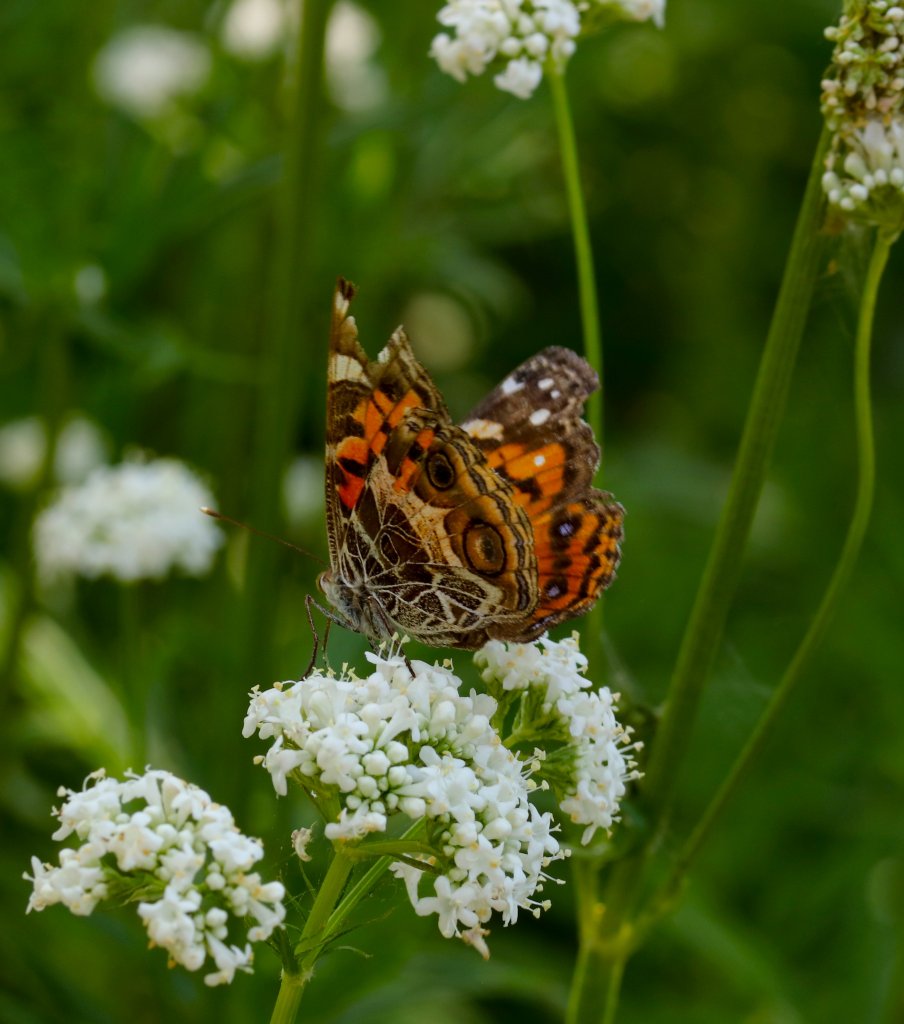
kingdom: Animalia
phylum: Arthropoda
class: Insecta
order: Lepidoptera
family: Nymphalidae
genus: Vanessa
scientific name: Vanessa virginiensis
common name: American Lady
